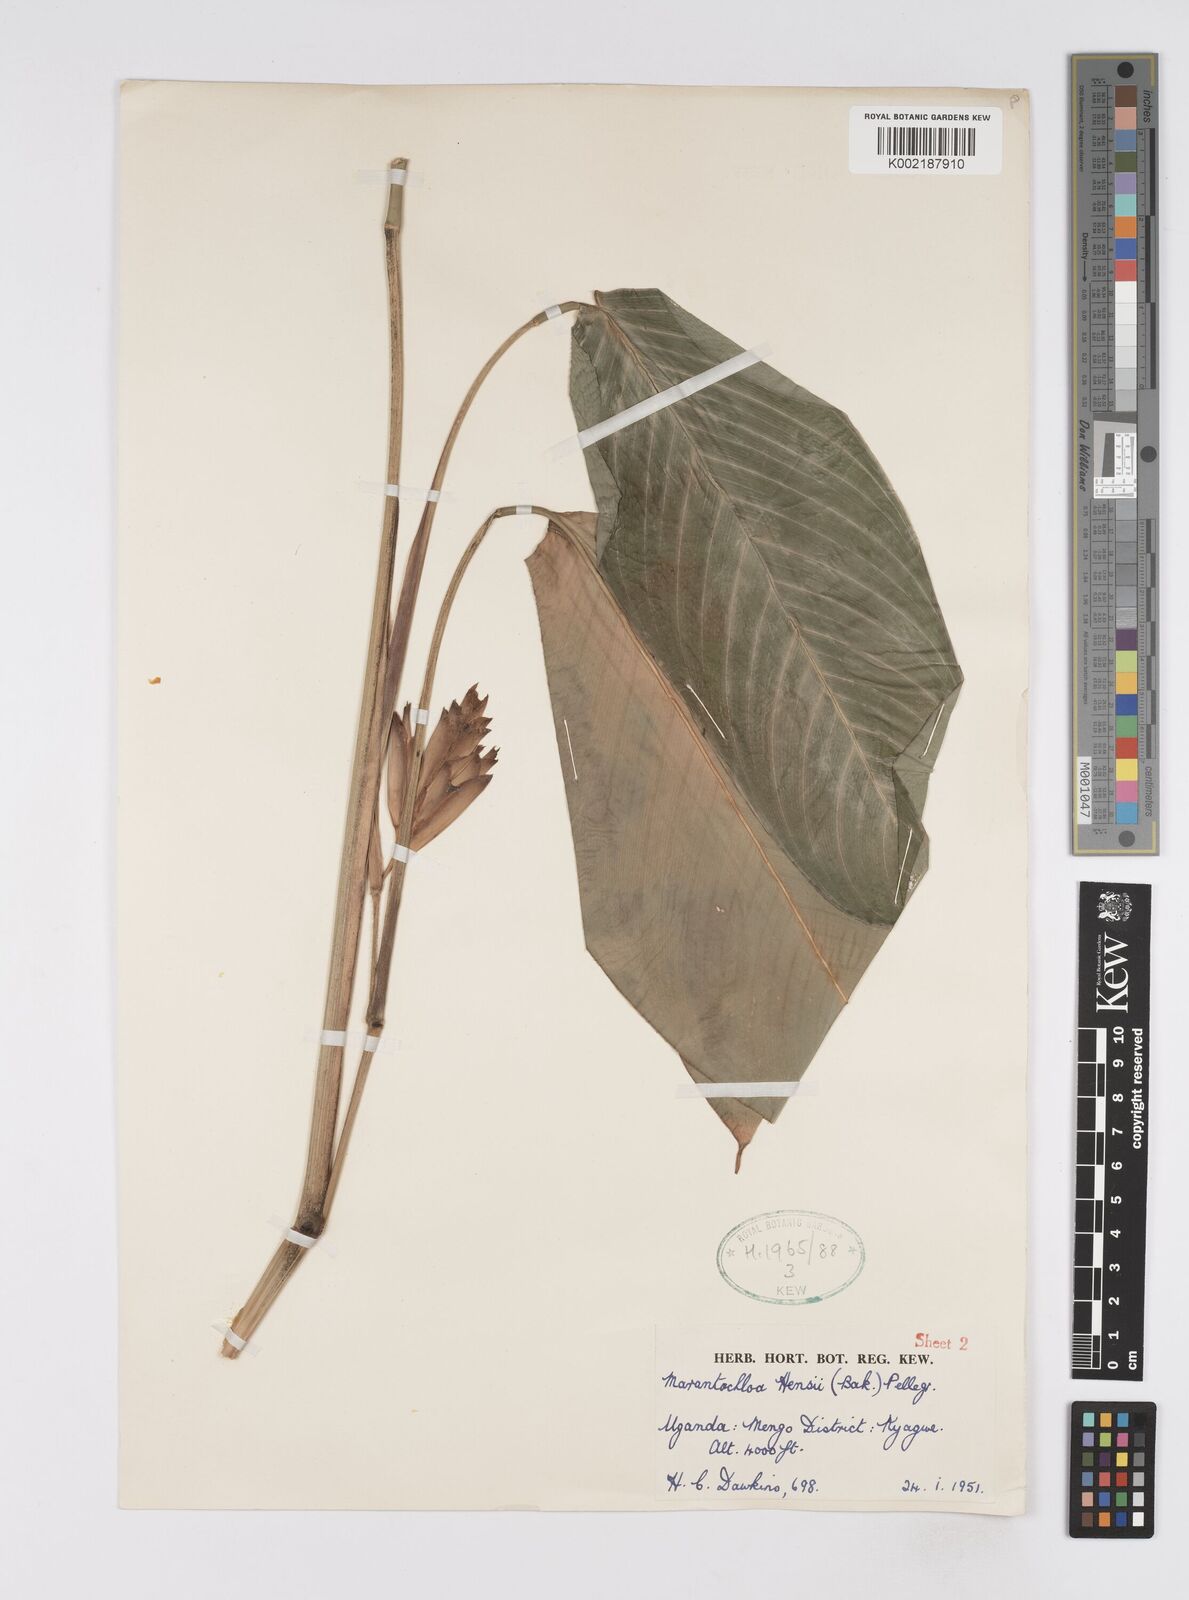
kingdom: Plantae
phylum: Tracheophyta
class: Liliopsida
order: Zingiberales
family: Marantaceae
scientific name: Marantaceae
